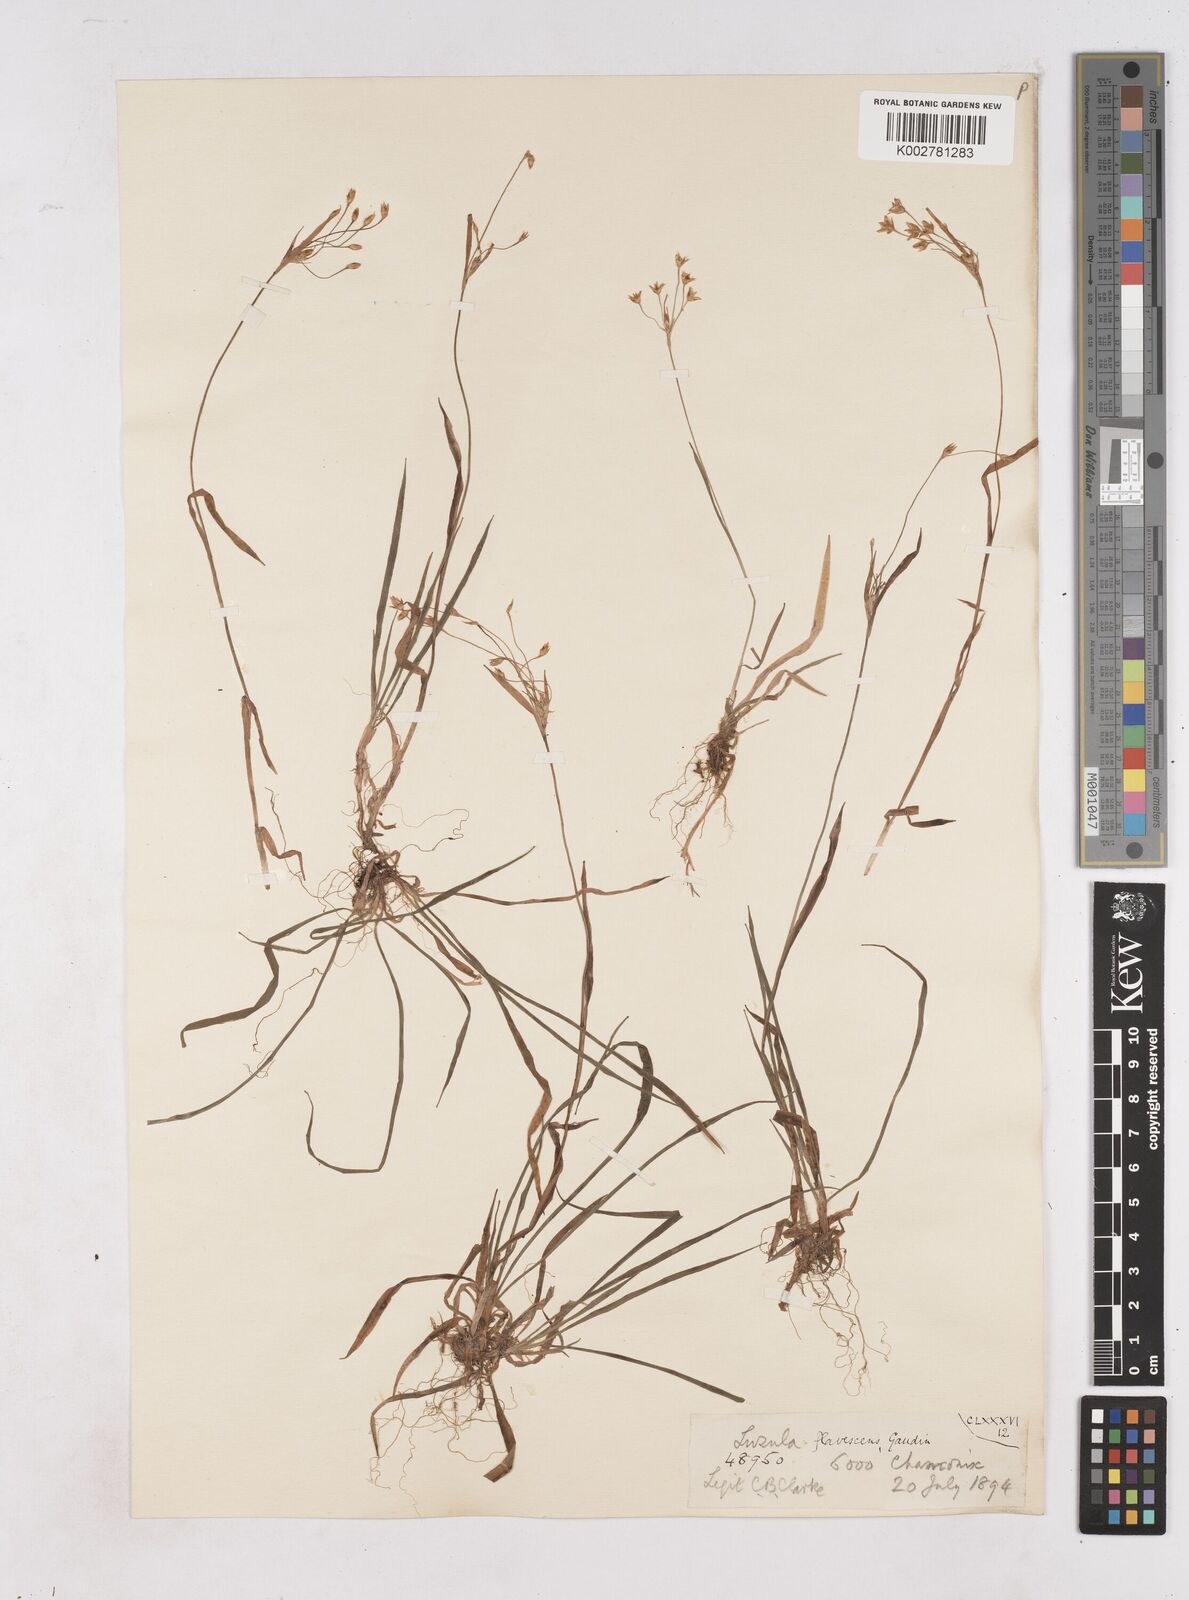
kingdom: Plantae
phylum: Tracheophyta
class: Liliopsida
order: Poales
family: Juncaceae
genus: Luzula
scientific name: Luzula luzulina
